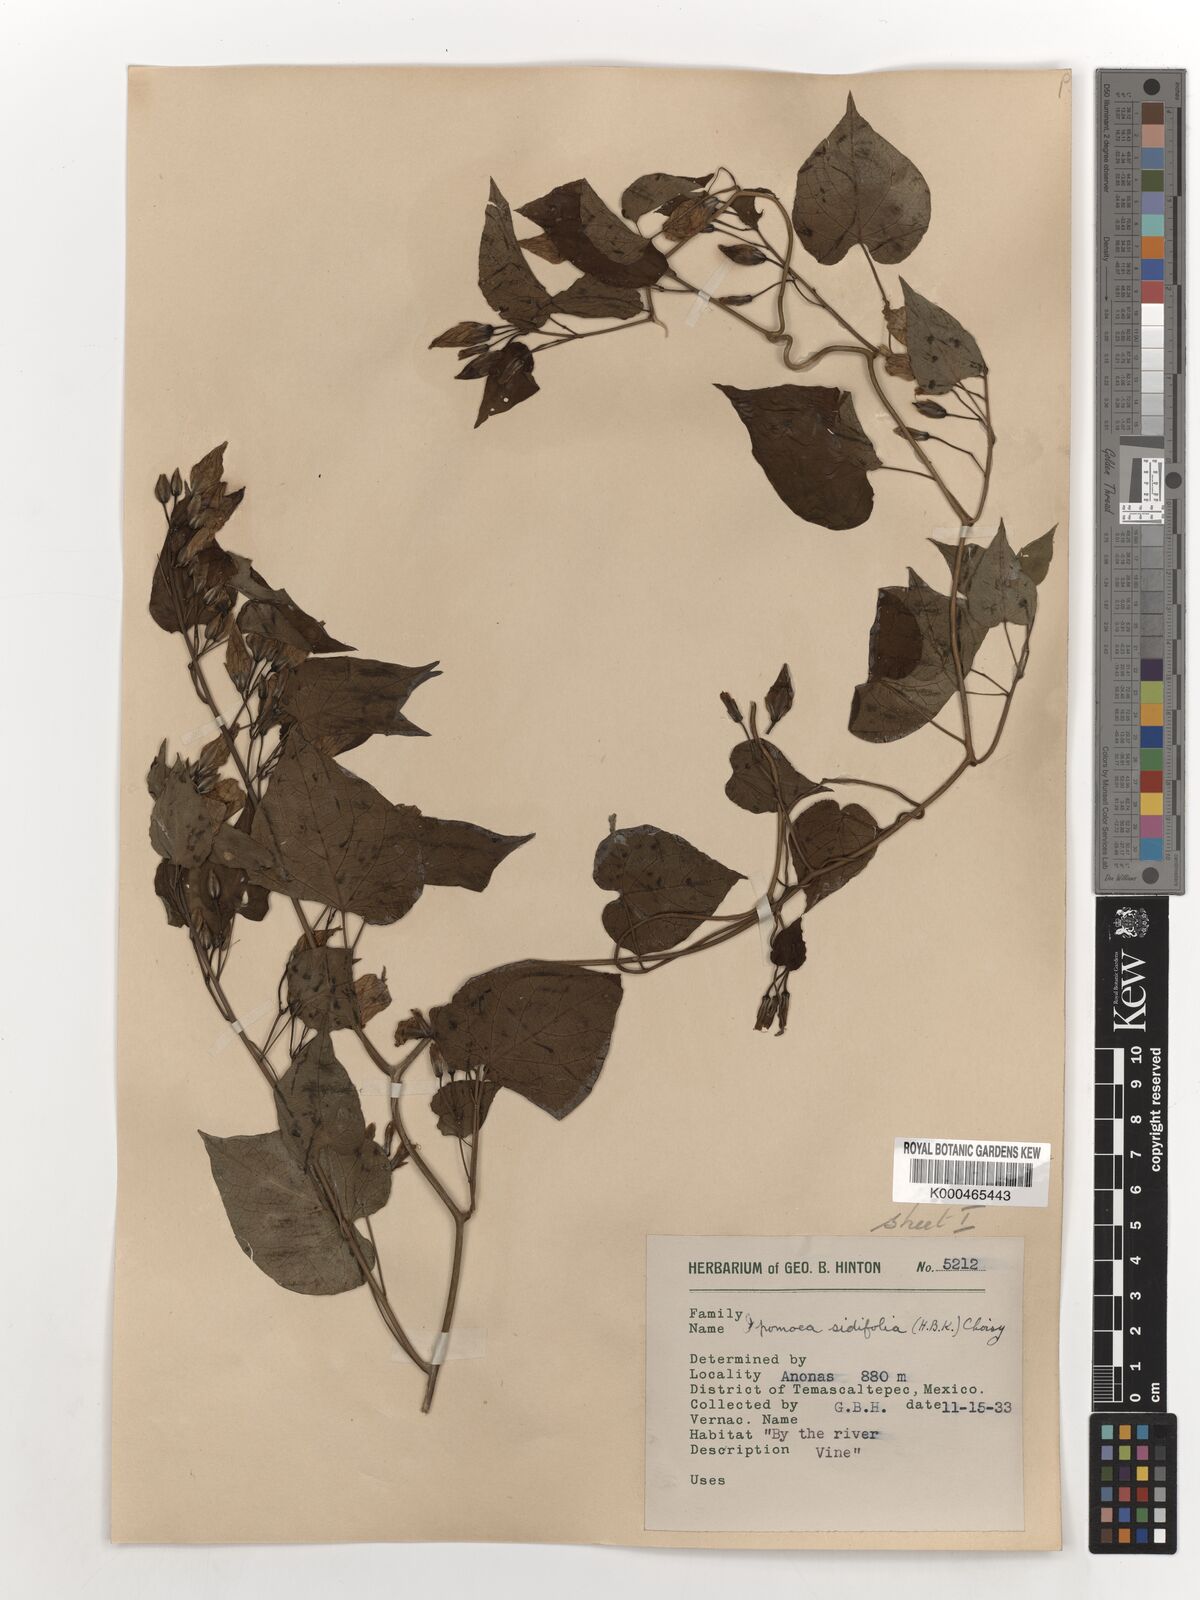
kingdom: Plantae
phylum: Tracheophyta
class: Magnoliopsida
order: Solanales
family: Convolvulaceae
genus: Ipomoea
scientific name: Ipomoea corymbosa
